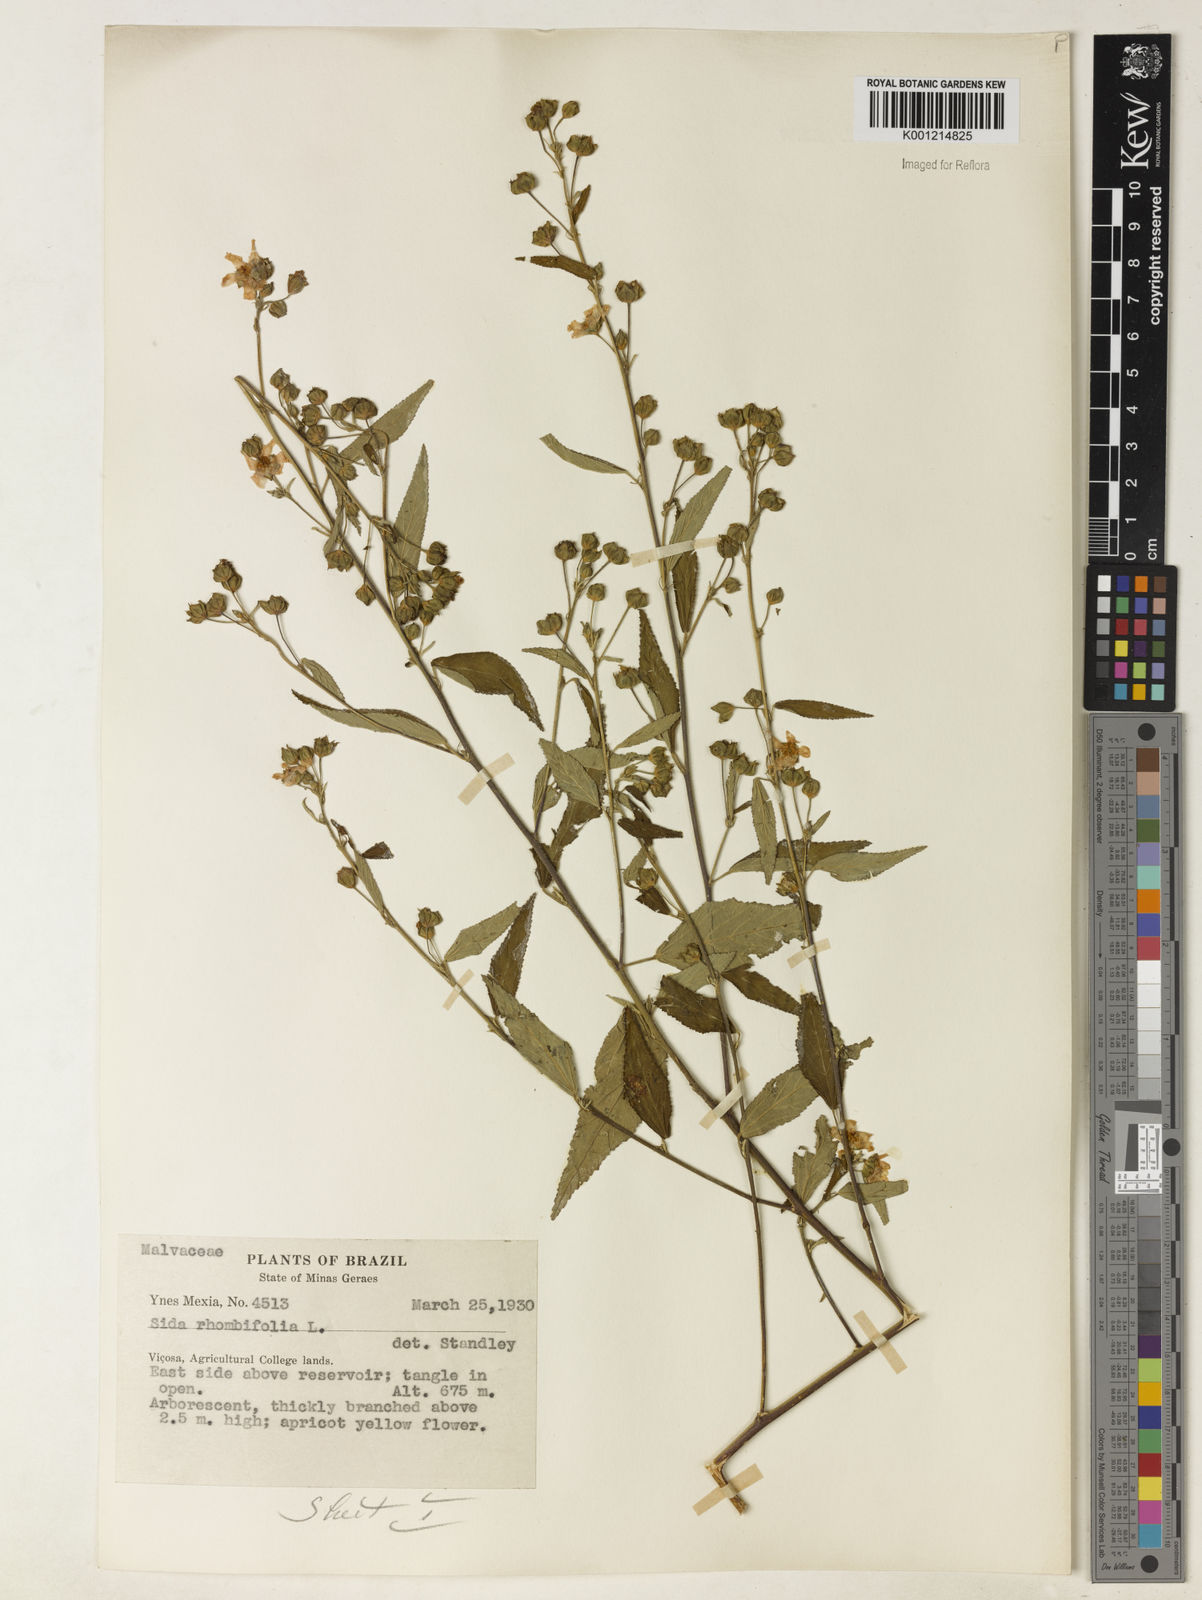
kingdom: Plantae
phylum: Tracheophyta
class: Magnoliopsida
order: Malvales
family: Malvaceae
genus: Sida
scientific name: Sida rhombifolia
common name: Queensland-hemp
